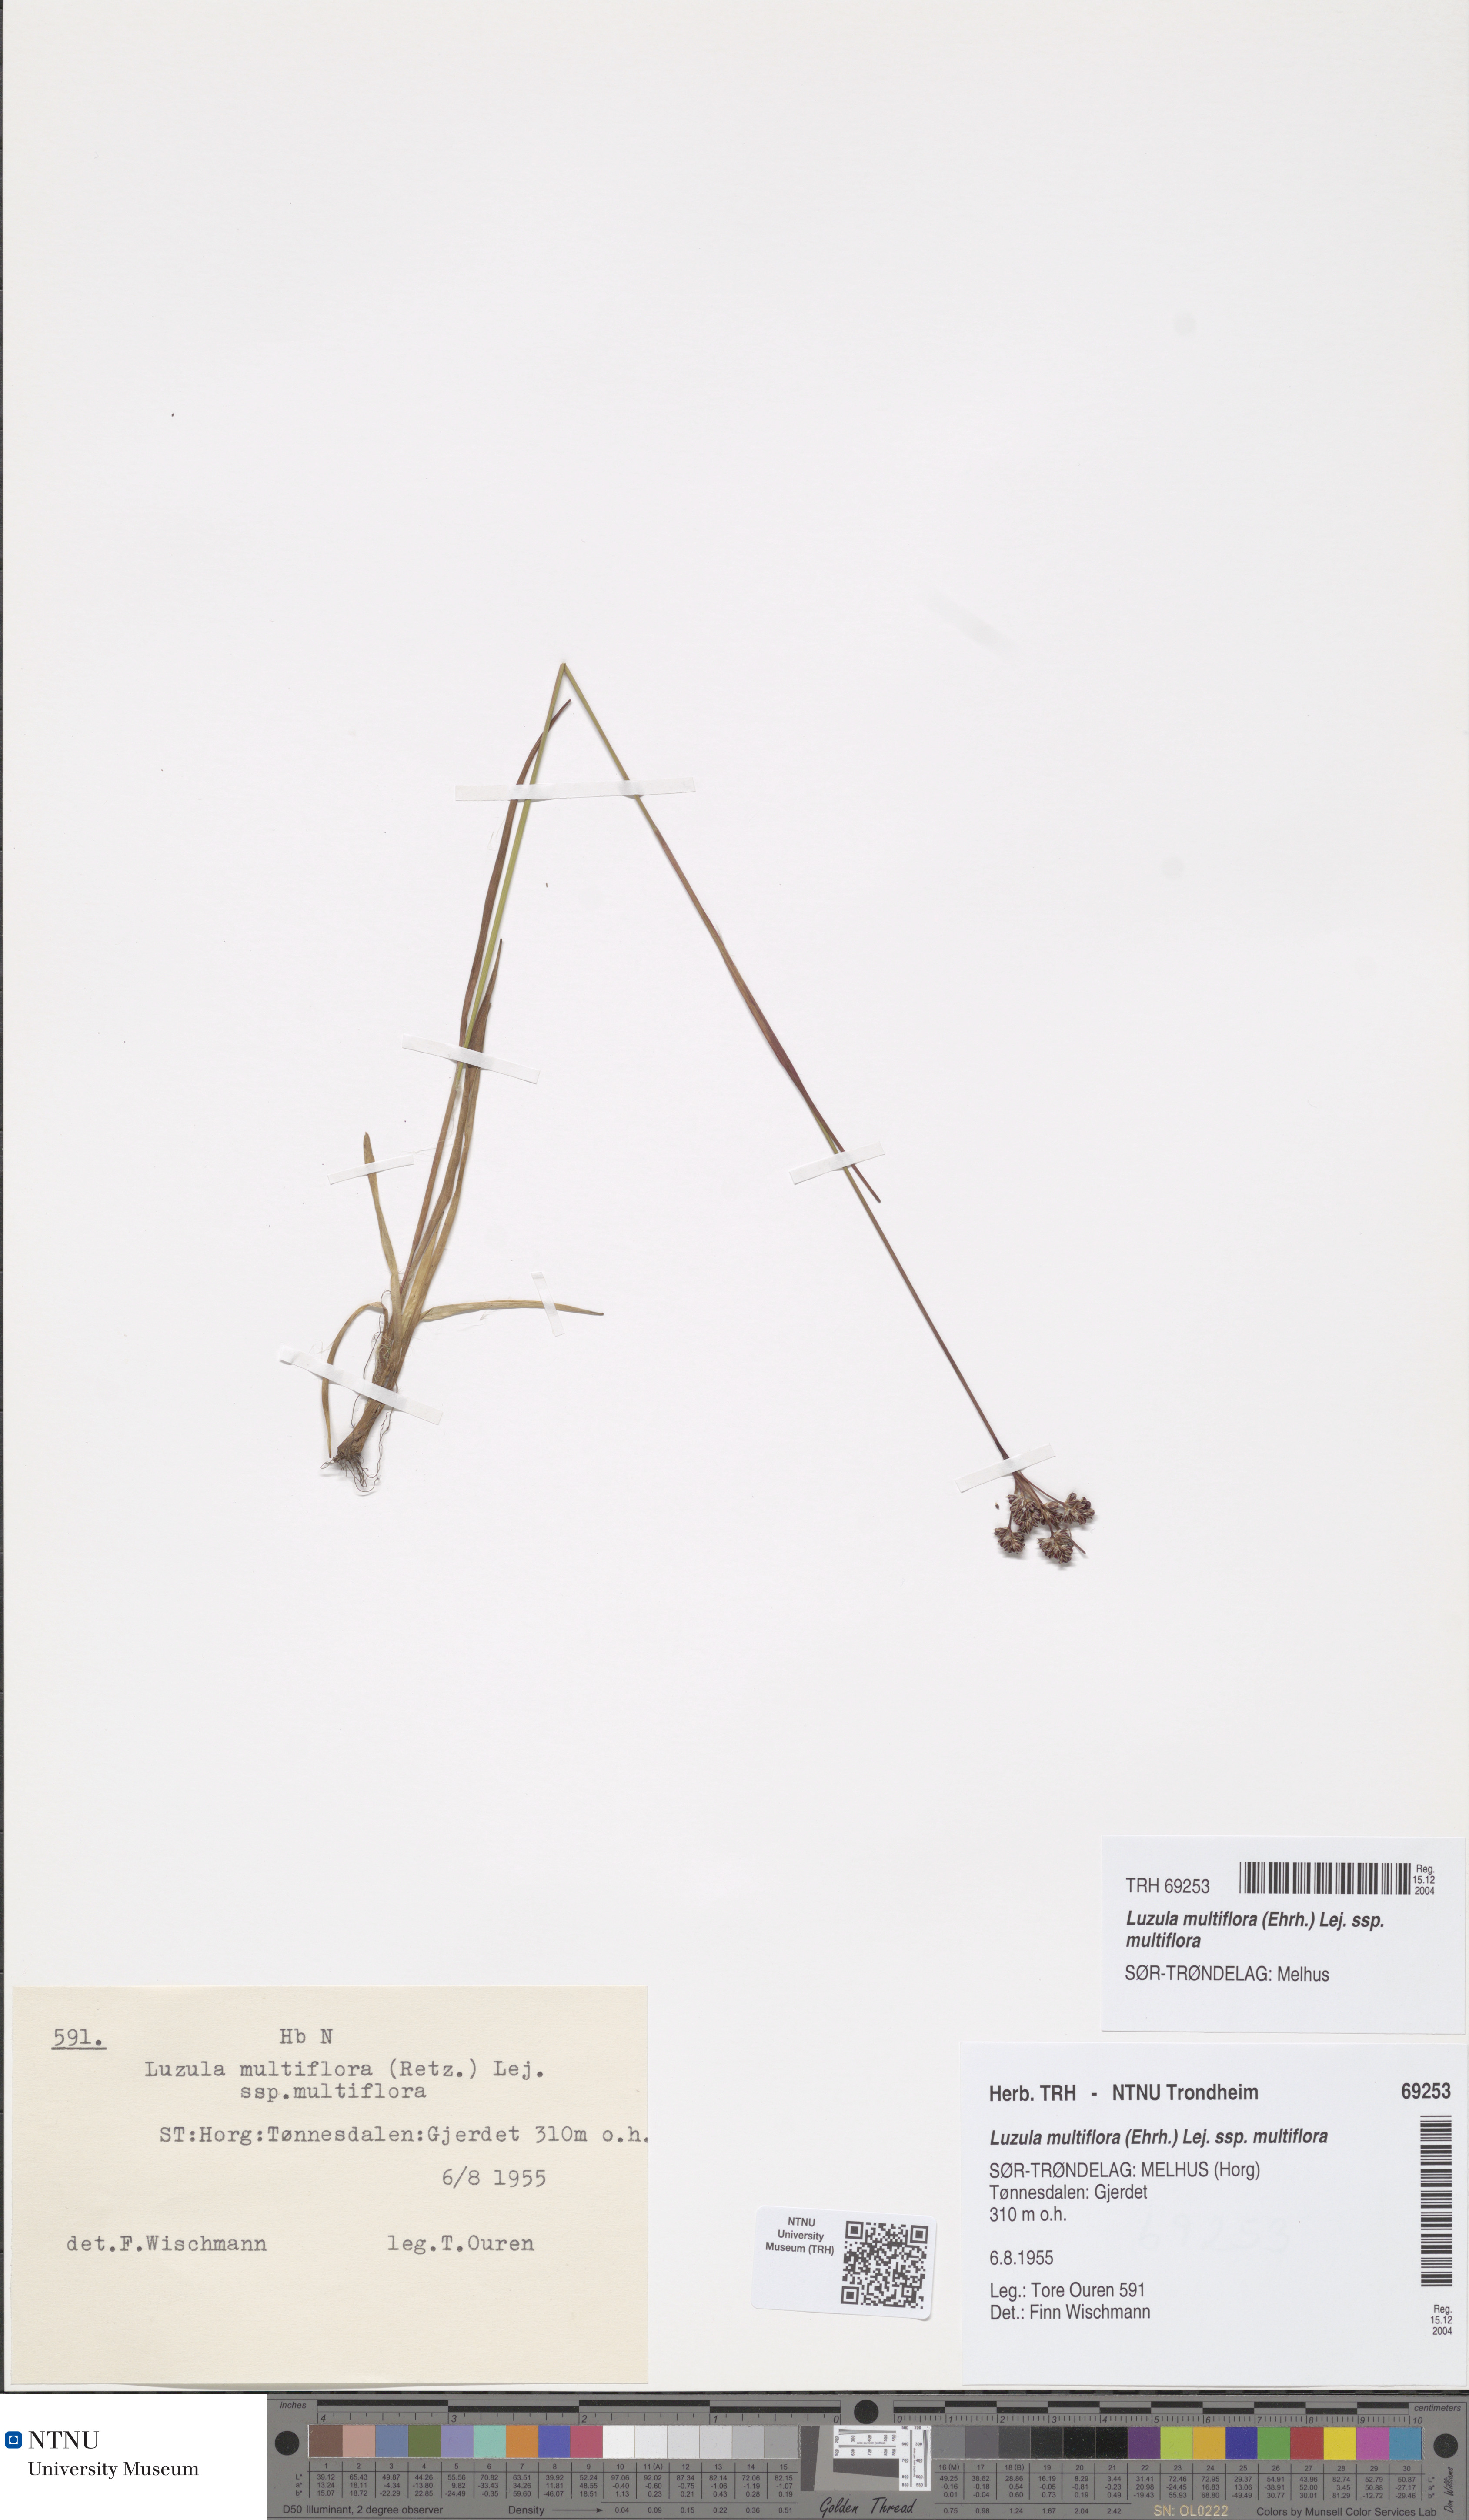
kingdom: Plantae
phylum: Tracheophyta
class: Liliopsida
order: Poales
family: Juncaceae
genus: Luzula
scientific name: Luzula multiflora
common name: Heath wood-rush
